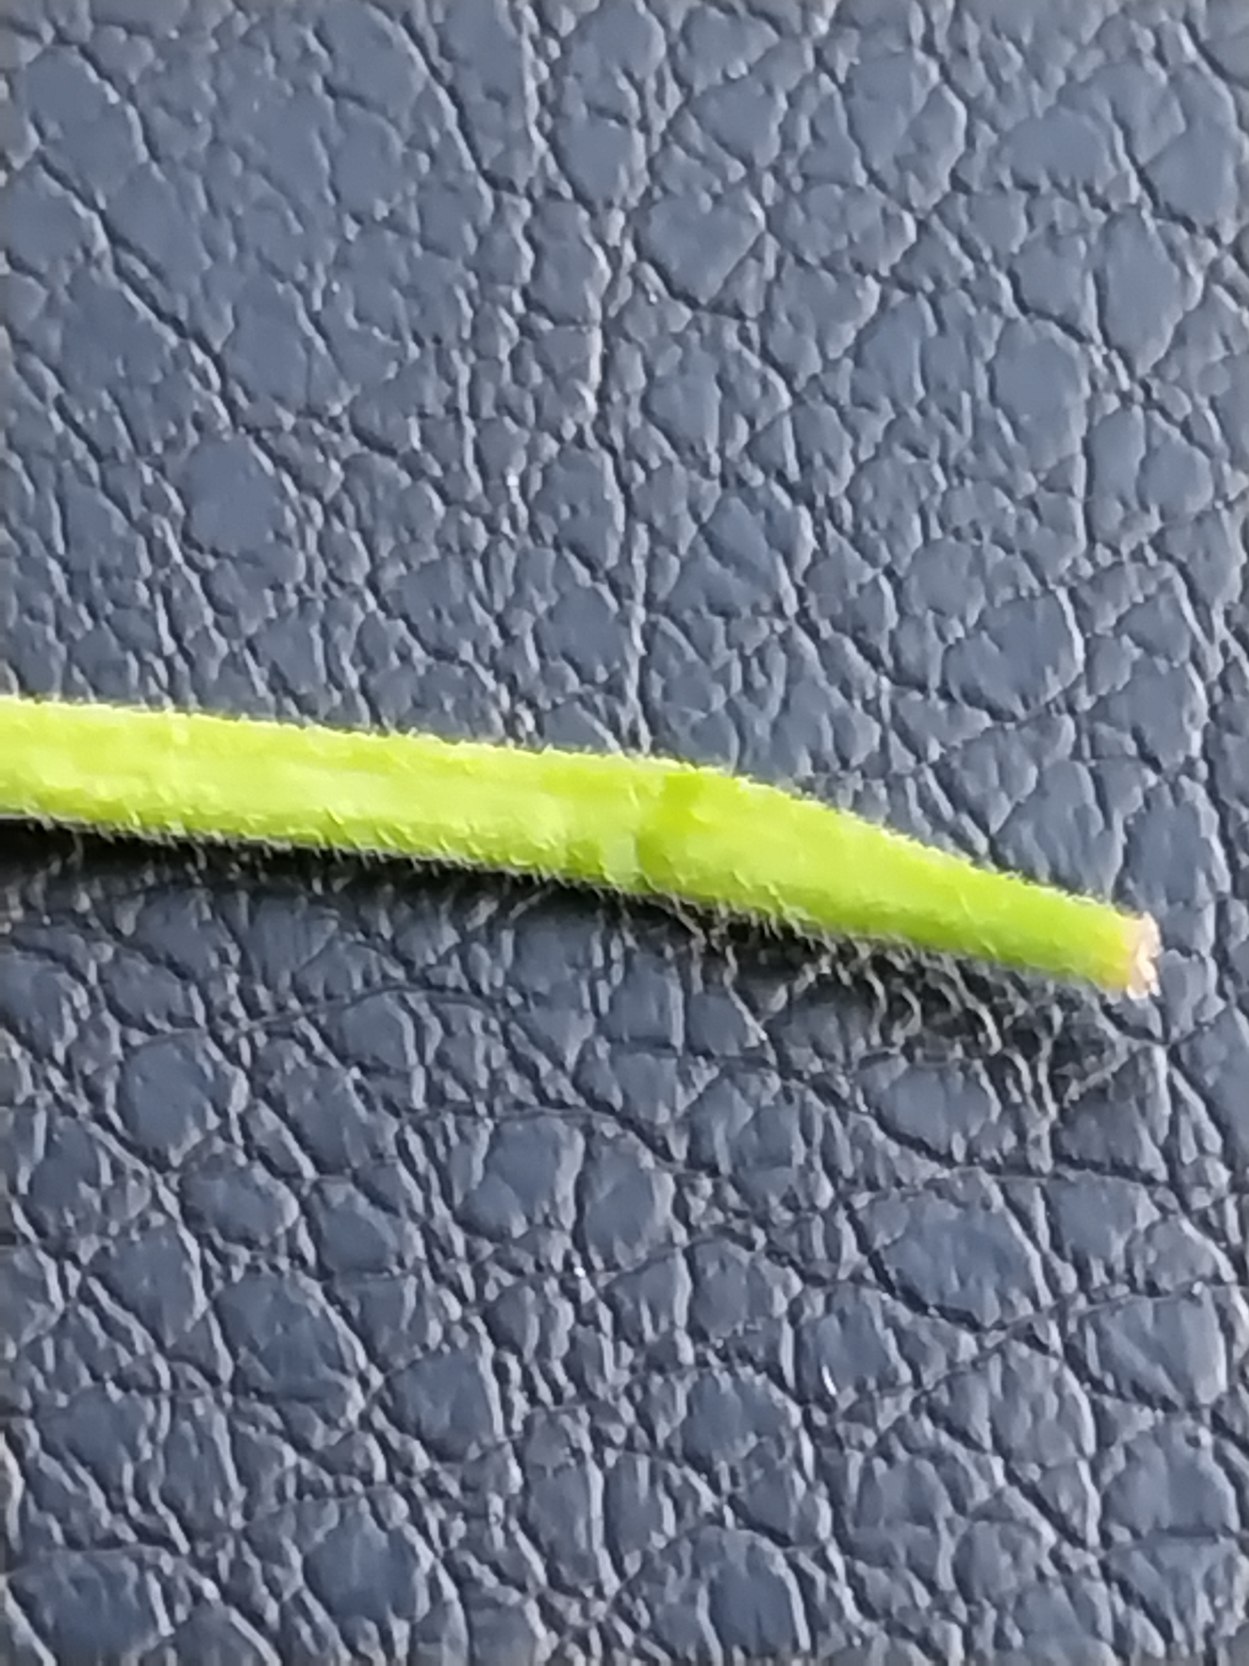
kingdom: Plantae
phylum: Tracheophyta
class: Magnoliopsida
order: Myrtales
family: Onagraceae
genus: Epilobium
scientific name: Epilobium ciliatum
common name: Alaska-dueurt
